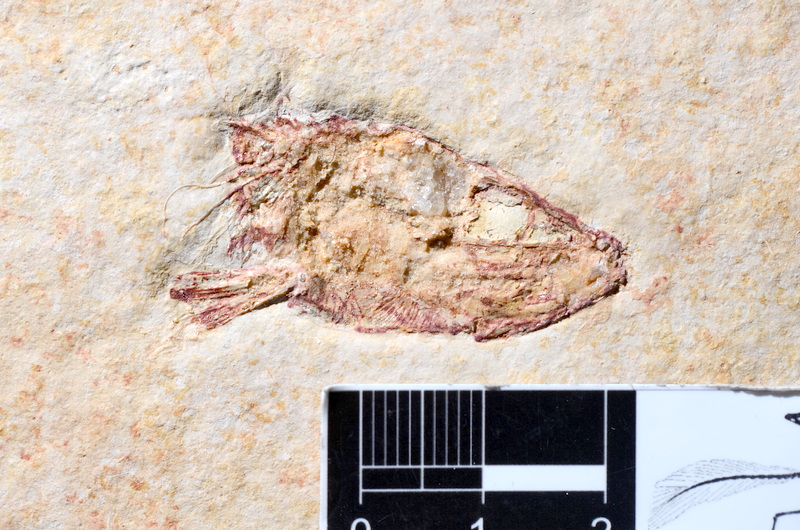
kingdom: Animalia
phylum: Chordata
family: Ascalaboidae
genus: Tharsis
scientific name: Tharsis dubius
